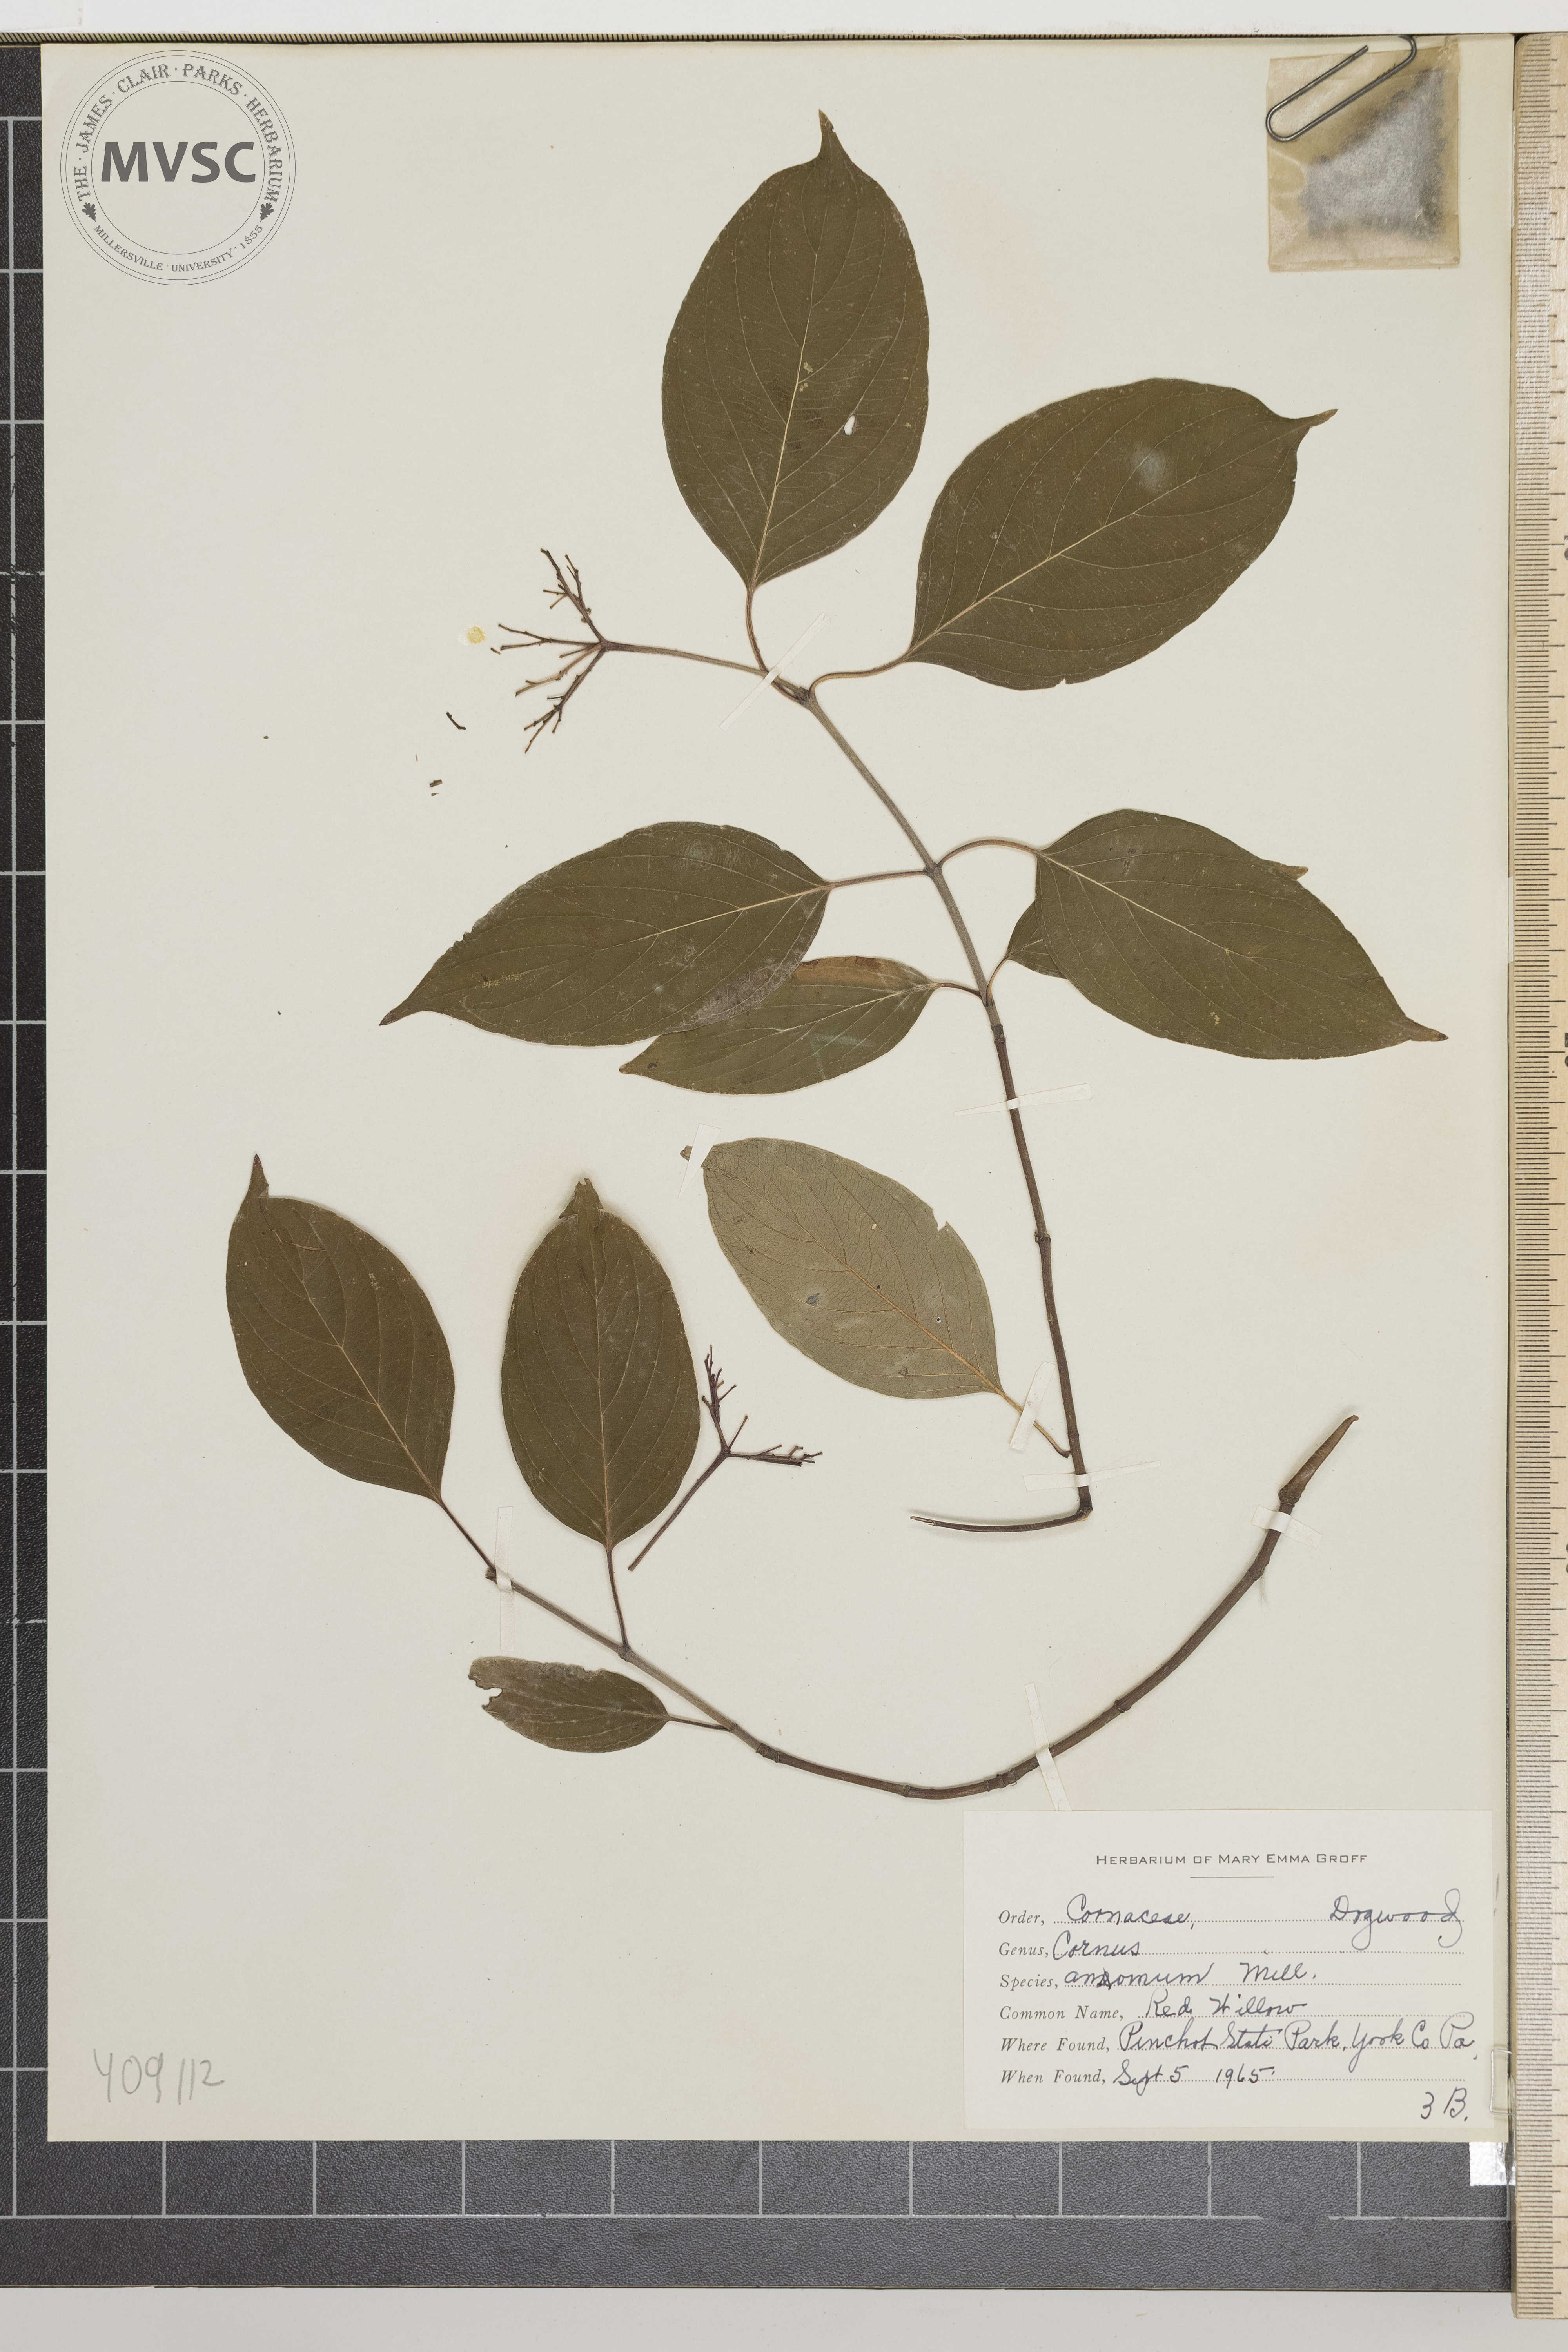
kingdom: Plantae
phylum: Tracheophyta
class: Magnoliopsida
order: Cornales
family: Cornaceae
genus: Cornus
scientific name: Cornus amomum
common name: Red Willow
